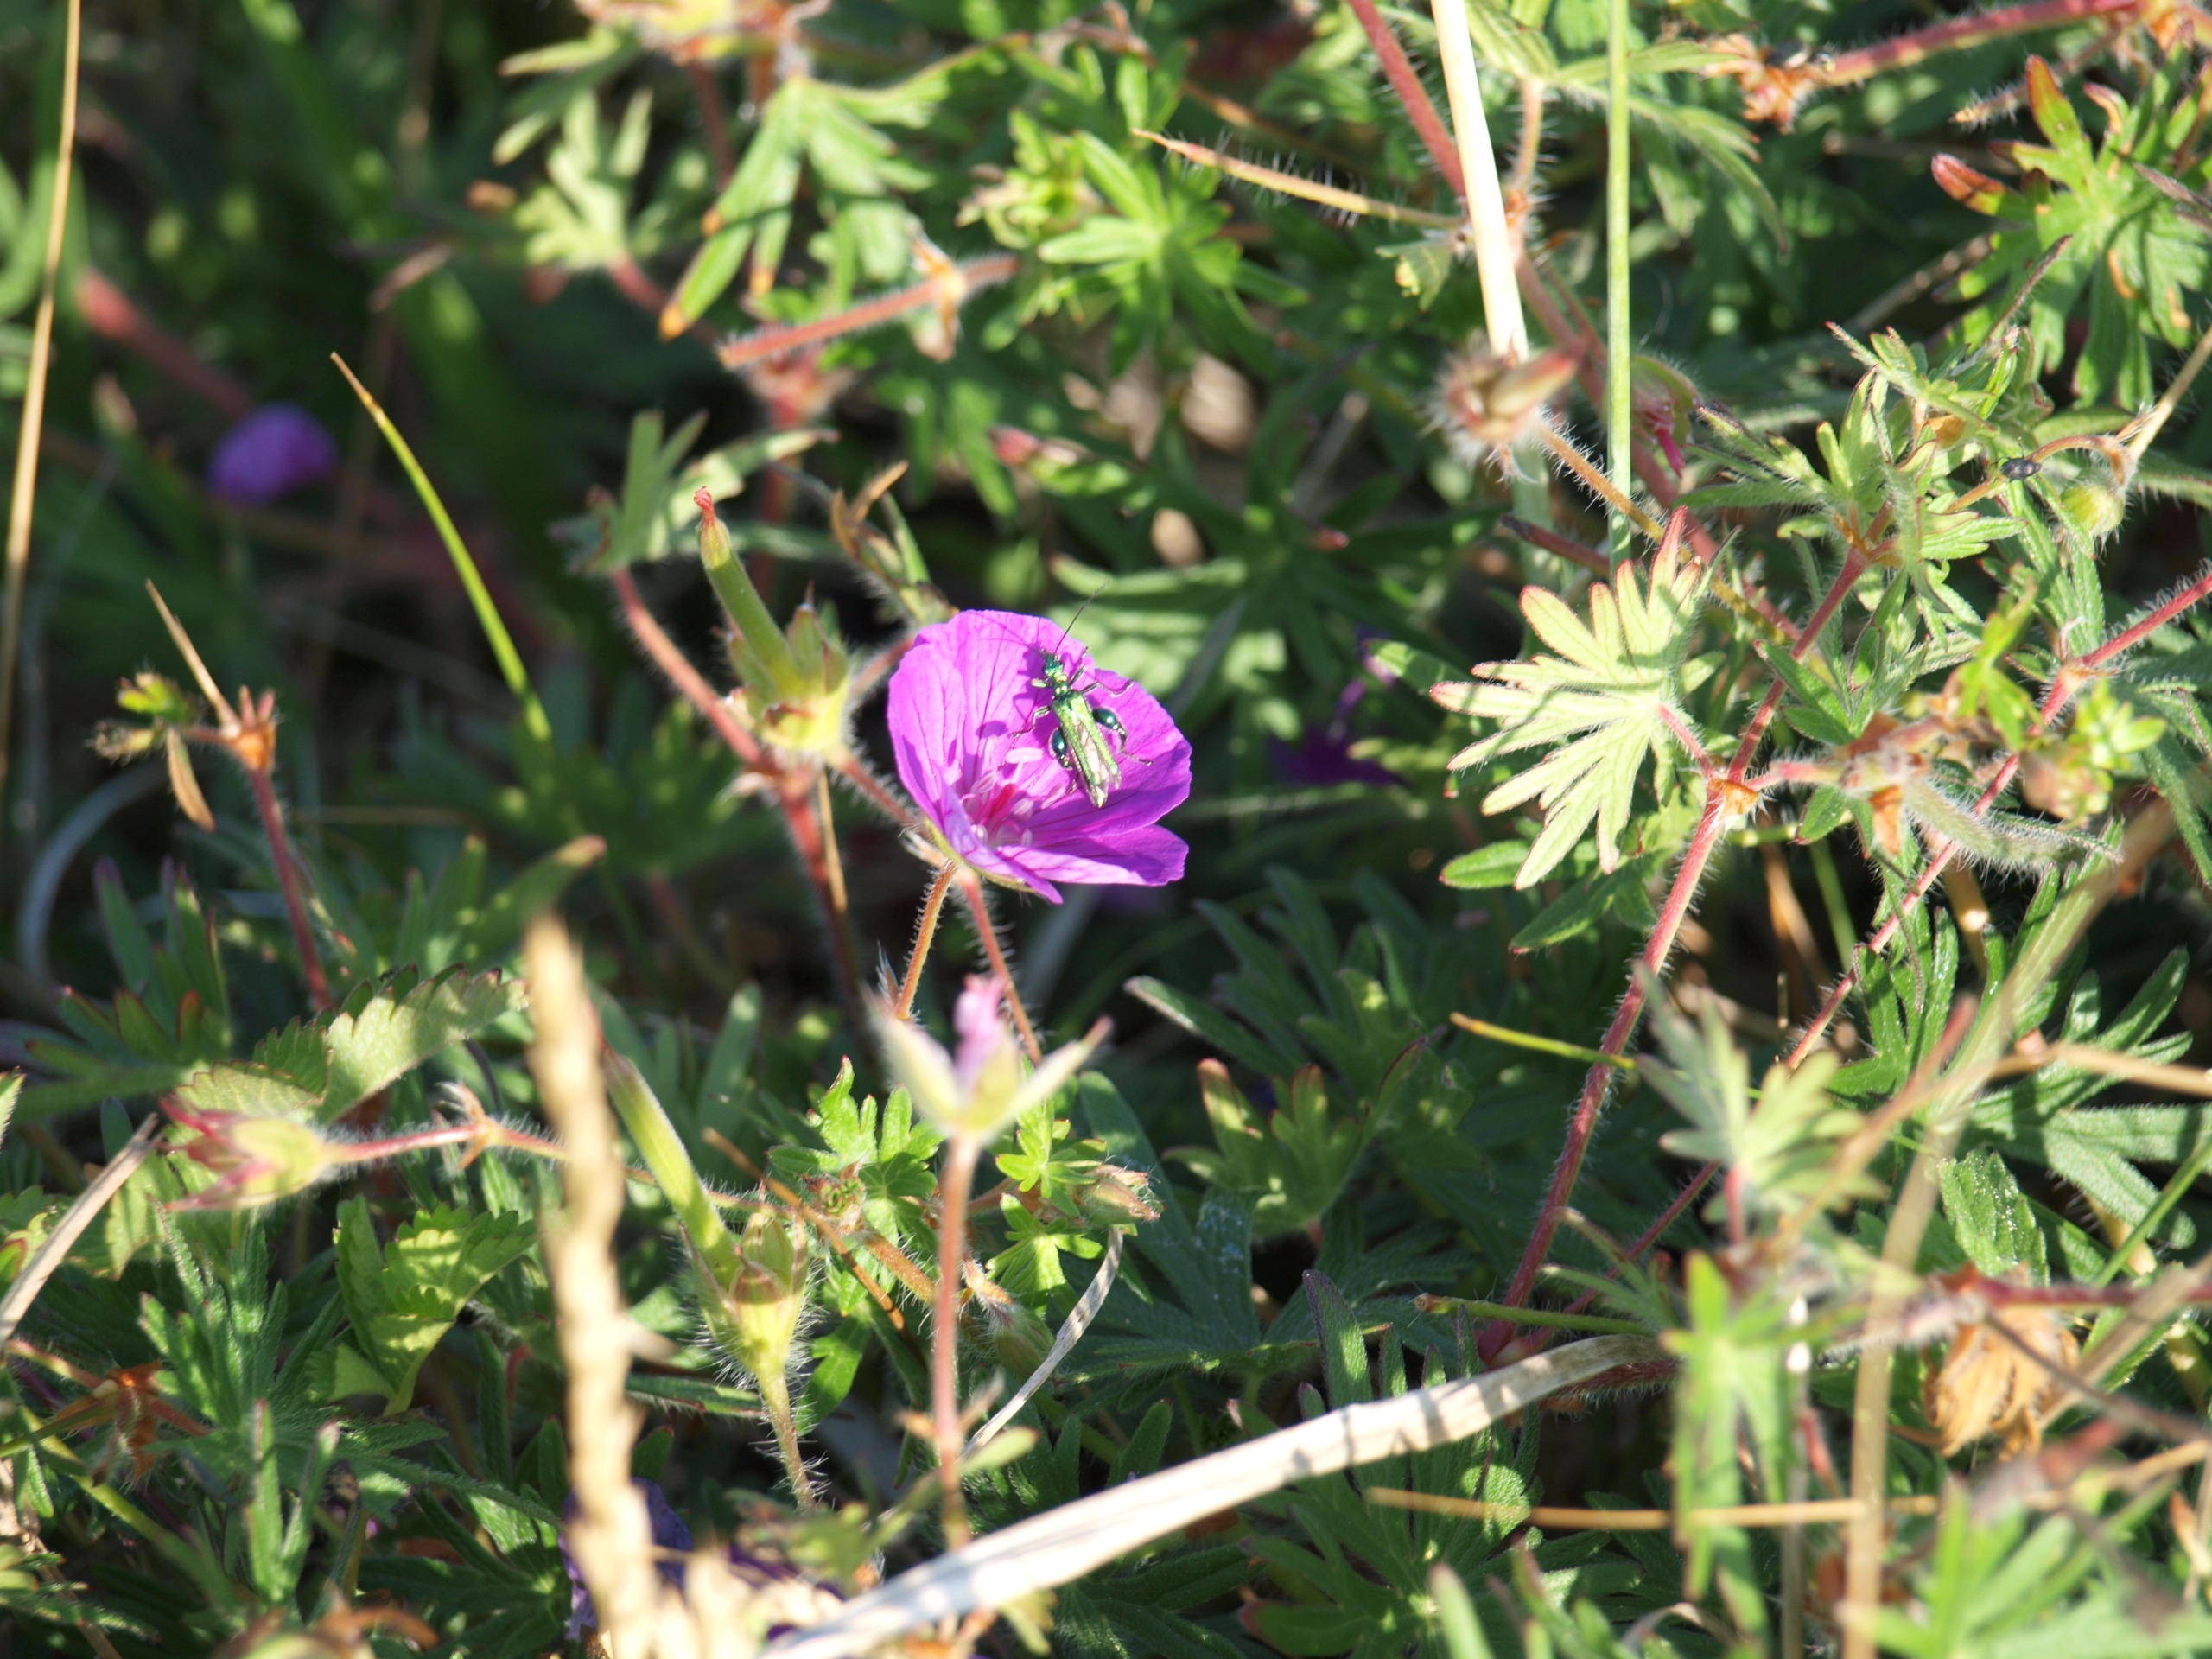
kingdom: Animalia
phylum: Arthropoda
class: Insecta
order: Coleoptera
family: Oedemeridae
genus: Oedemera
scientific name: Oedemera nobilis
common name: Tyklårssolbille
